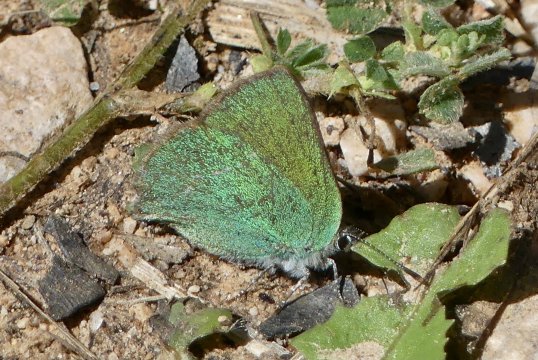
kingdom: Animalia
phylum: Arthropoda
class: Insecta
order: Lepidoptera
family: Lycaenidae
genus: Callophrys
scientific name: Callophrys rubi
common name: Green Hairstreak
